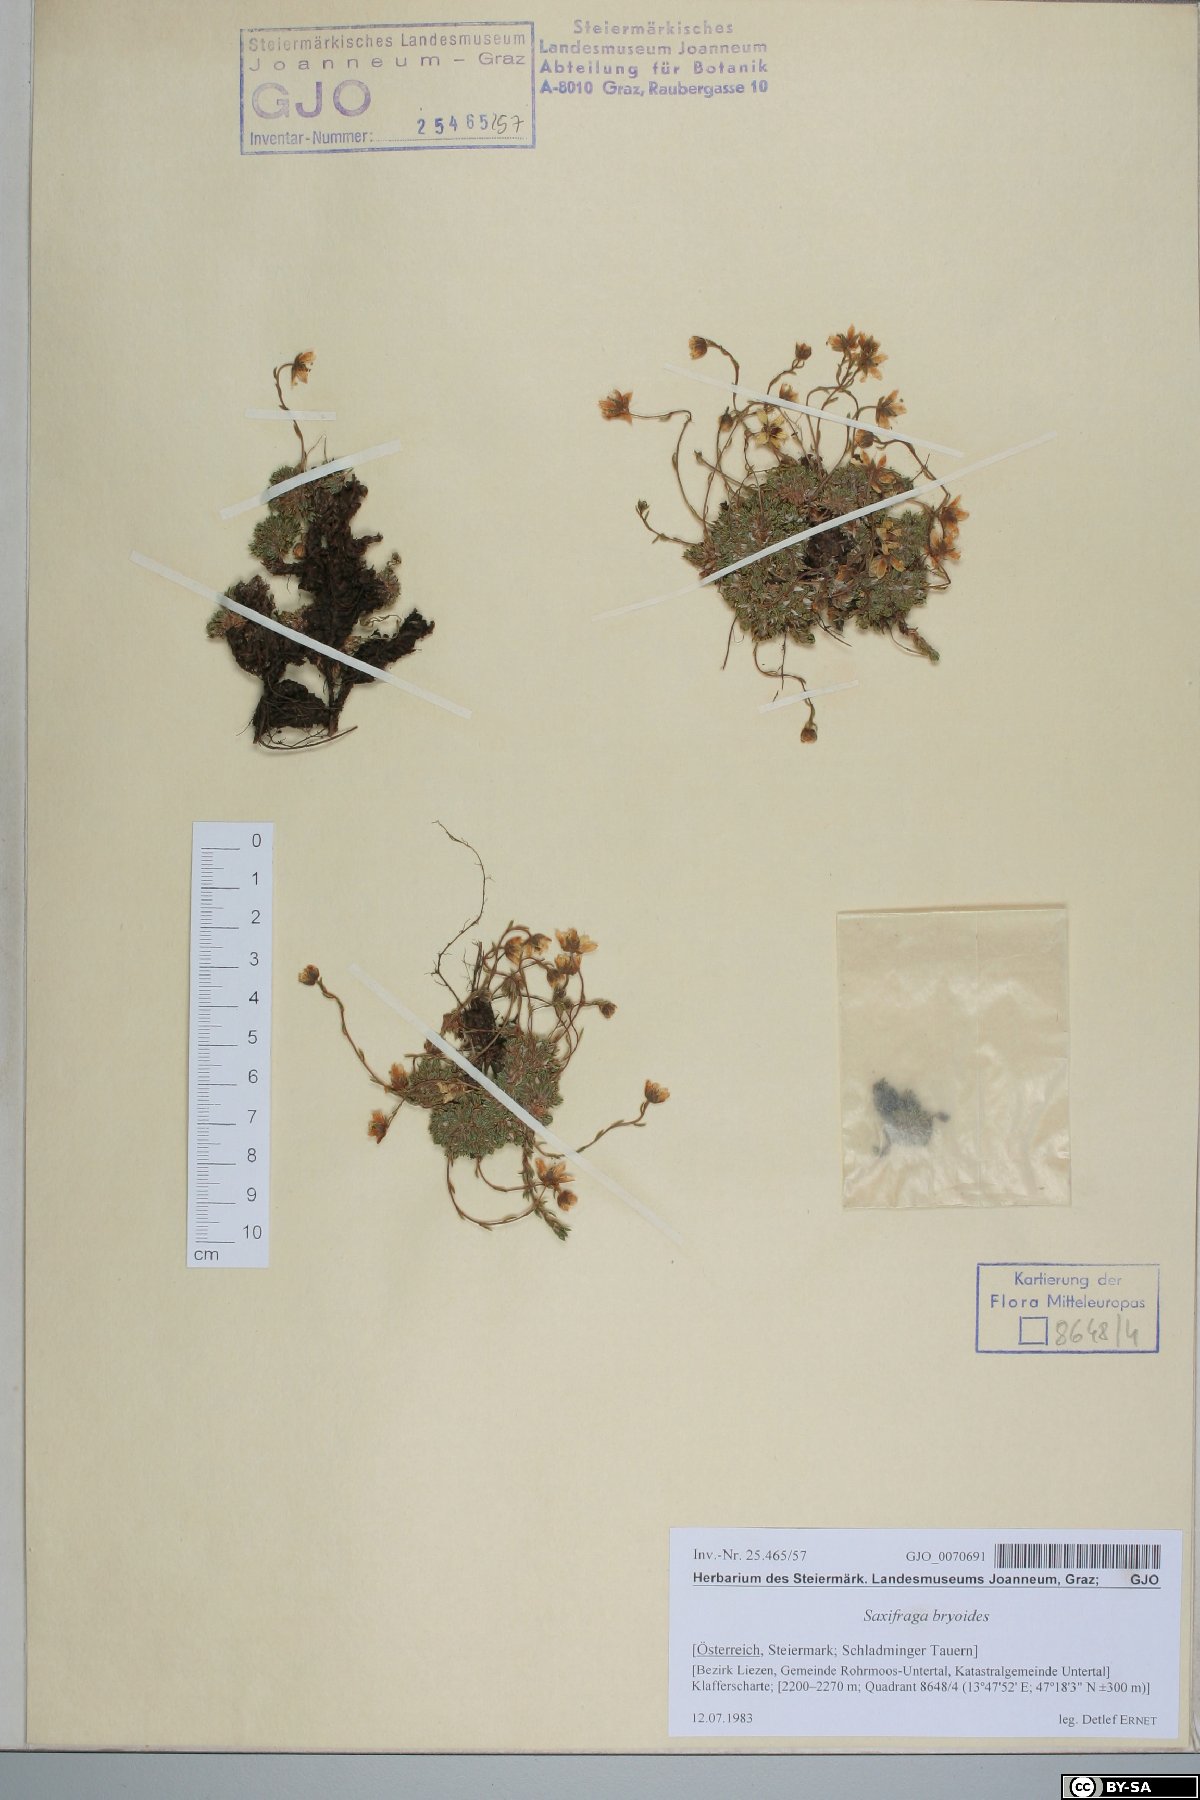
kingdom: Plantae
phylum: Tracheophyta
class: Magnoliopsida
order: Saxifragales
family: Saxifragaceae
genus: Saxifraga
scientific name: Saxifraga bryoides
